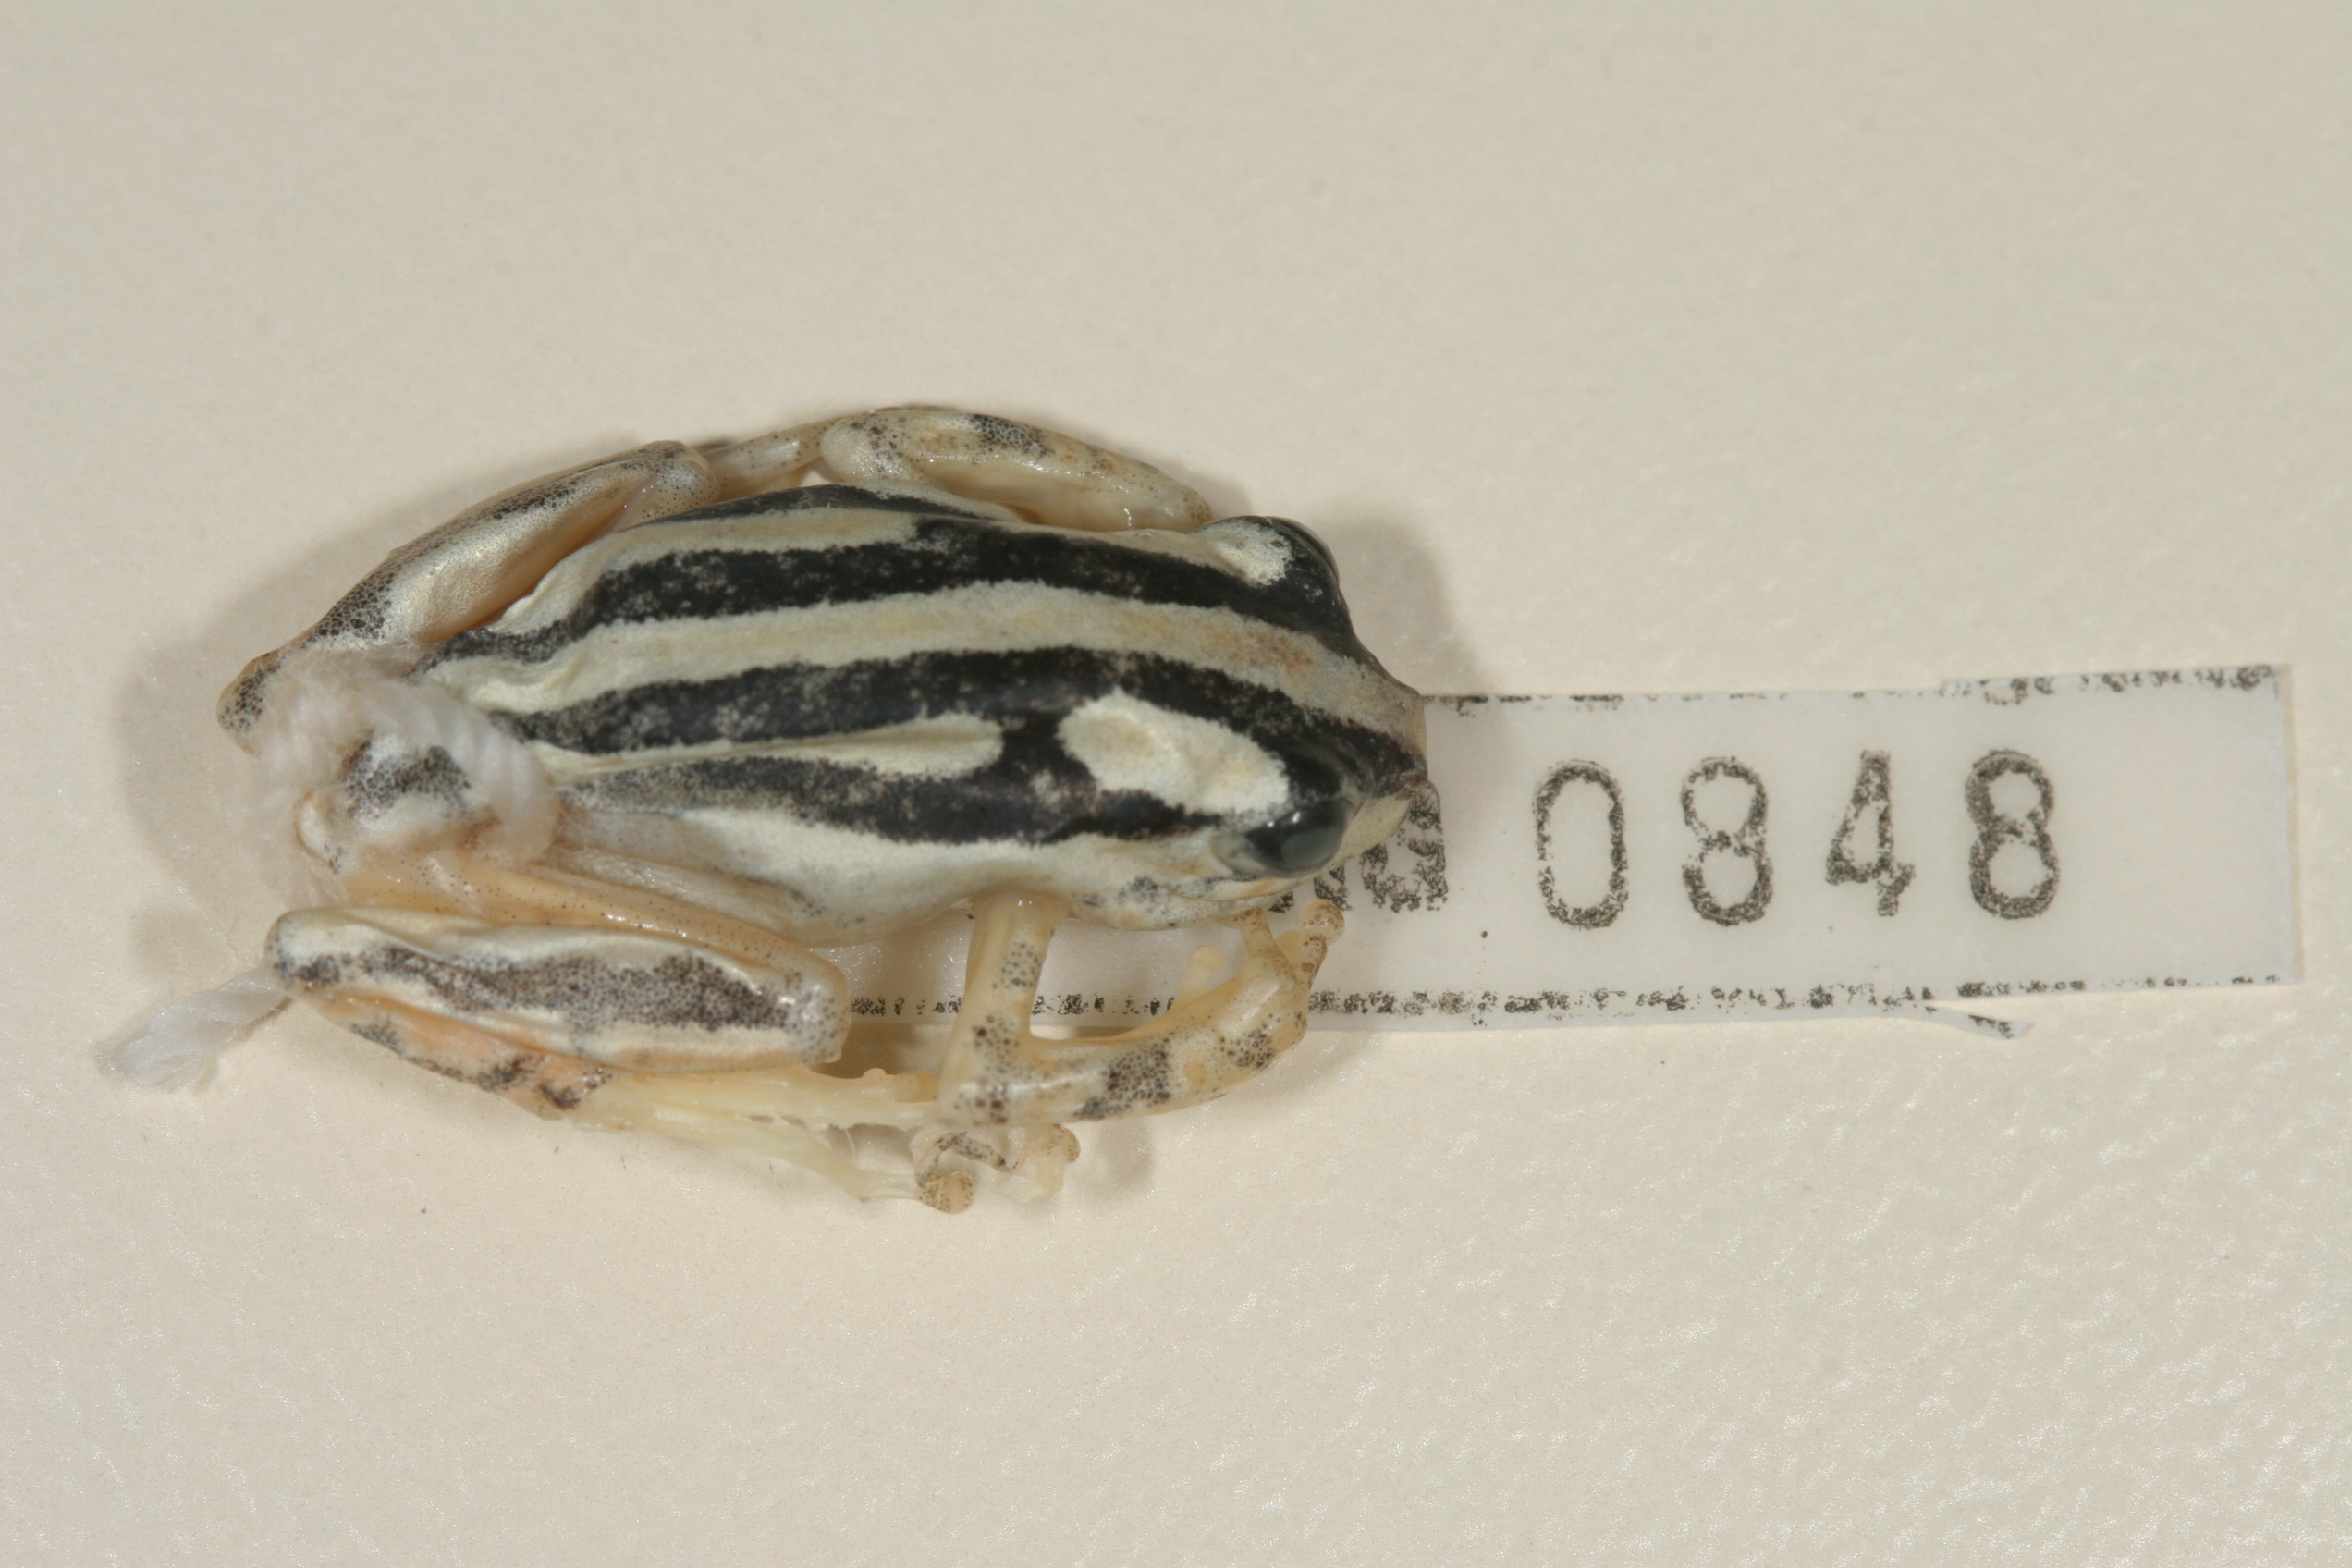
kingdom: Animalia
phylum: Chordata
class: Amphibia
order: Anura
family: Hyperoliidae
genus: Hyperolius
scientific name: Hyperolius marmoratus
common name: Painted reed frog
